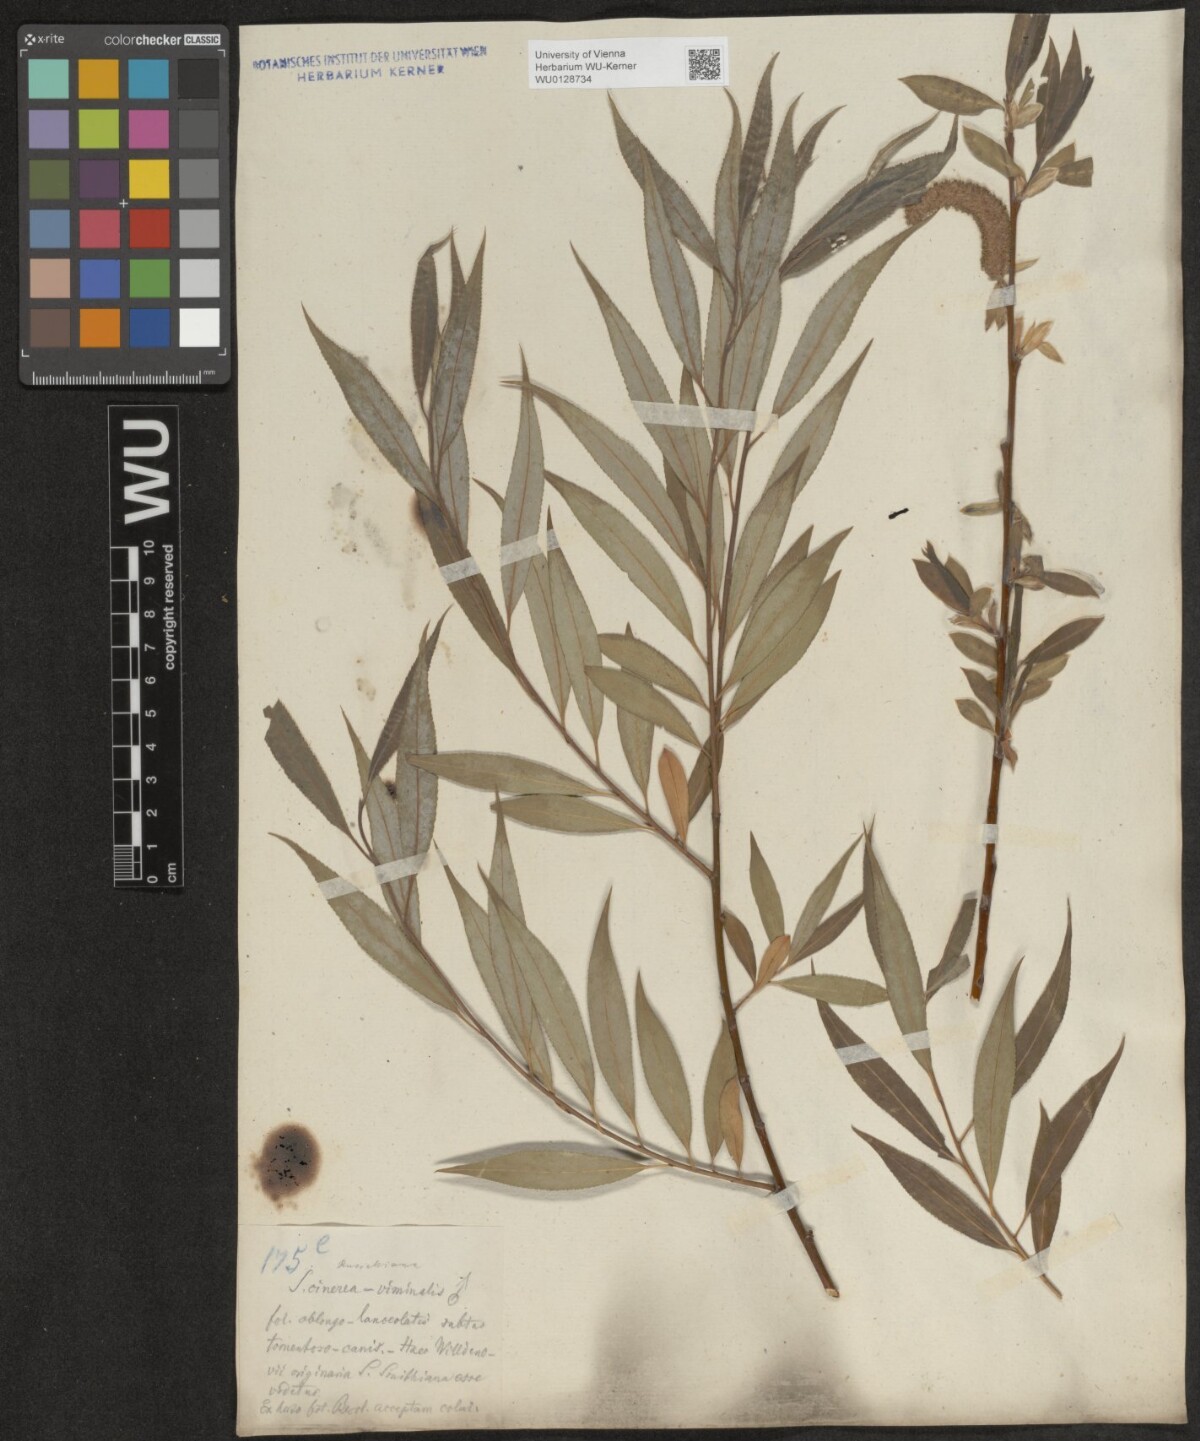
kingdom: Plantae
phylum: Tracheophyta
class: Magnoliopsida
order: Malpighiales
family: Salicaceae
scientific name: Salicaceae
